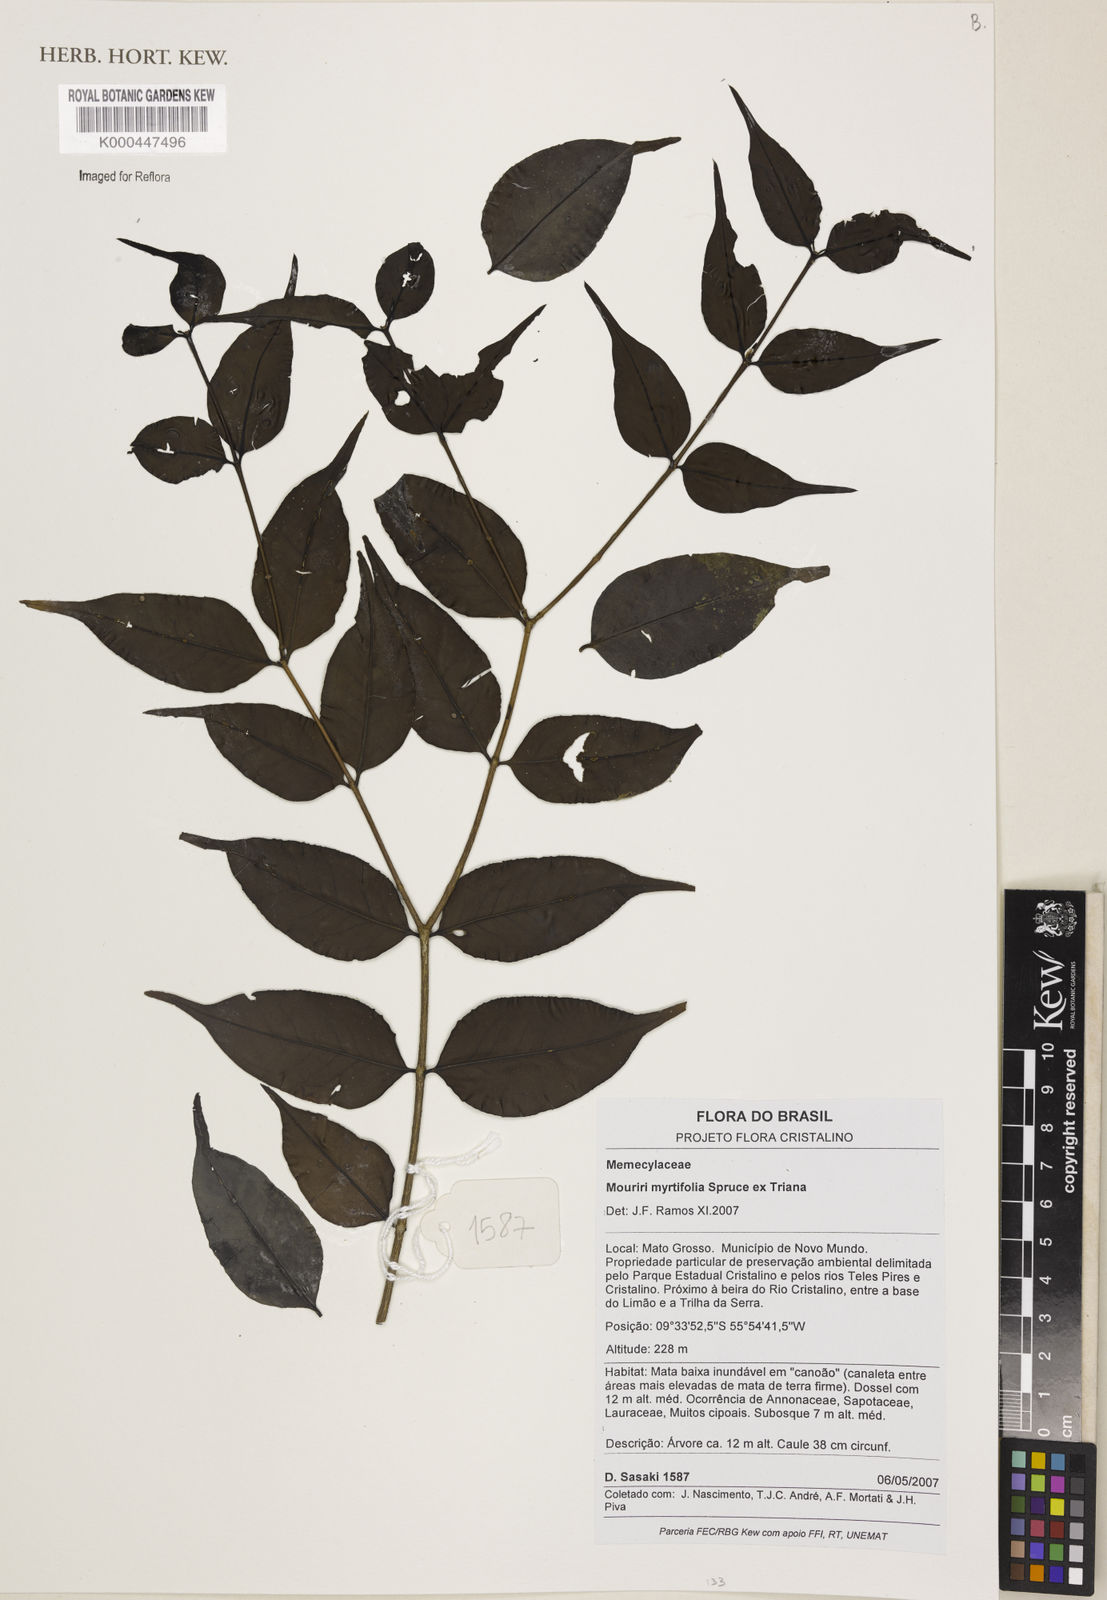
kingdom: Plantae
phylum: Tracheophyta
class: Magnoliopsida
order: Myrtales
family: Melastomataceae
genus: Mouriri
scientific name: Mouriri myrtifolia
